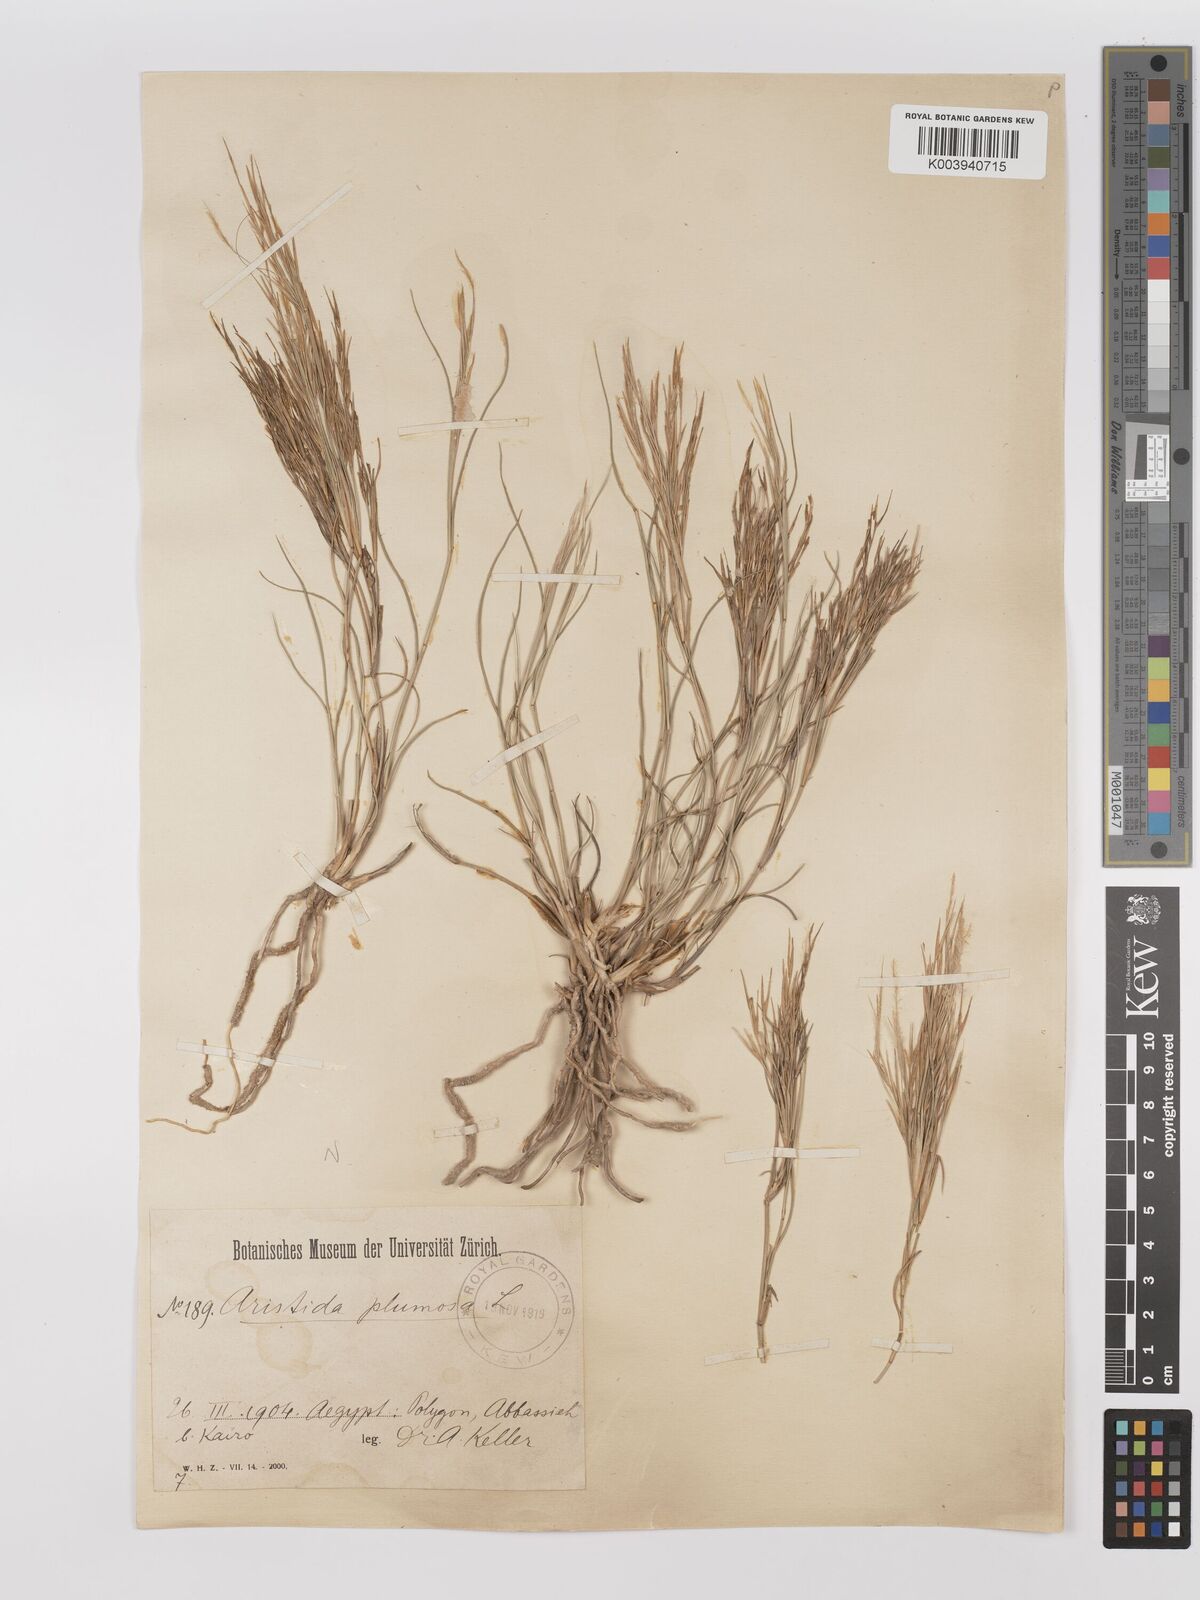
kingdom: Plantae
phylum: Tracheophyta
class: Liliopsida
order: Poales
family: Poaceae
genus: Stipagrostis
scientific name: Stipagrostis plumosa
